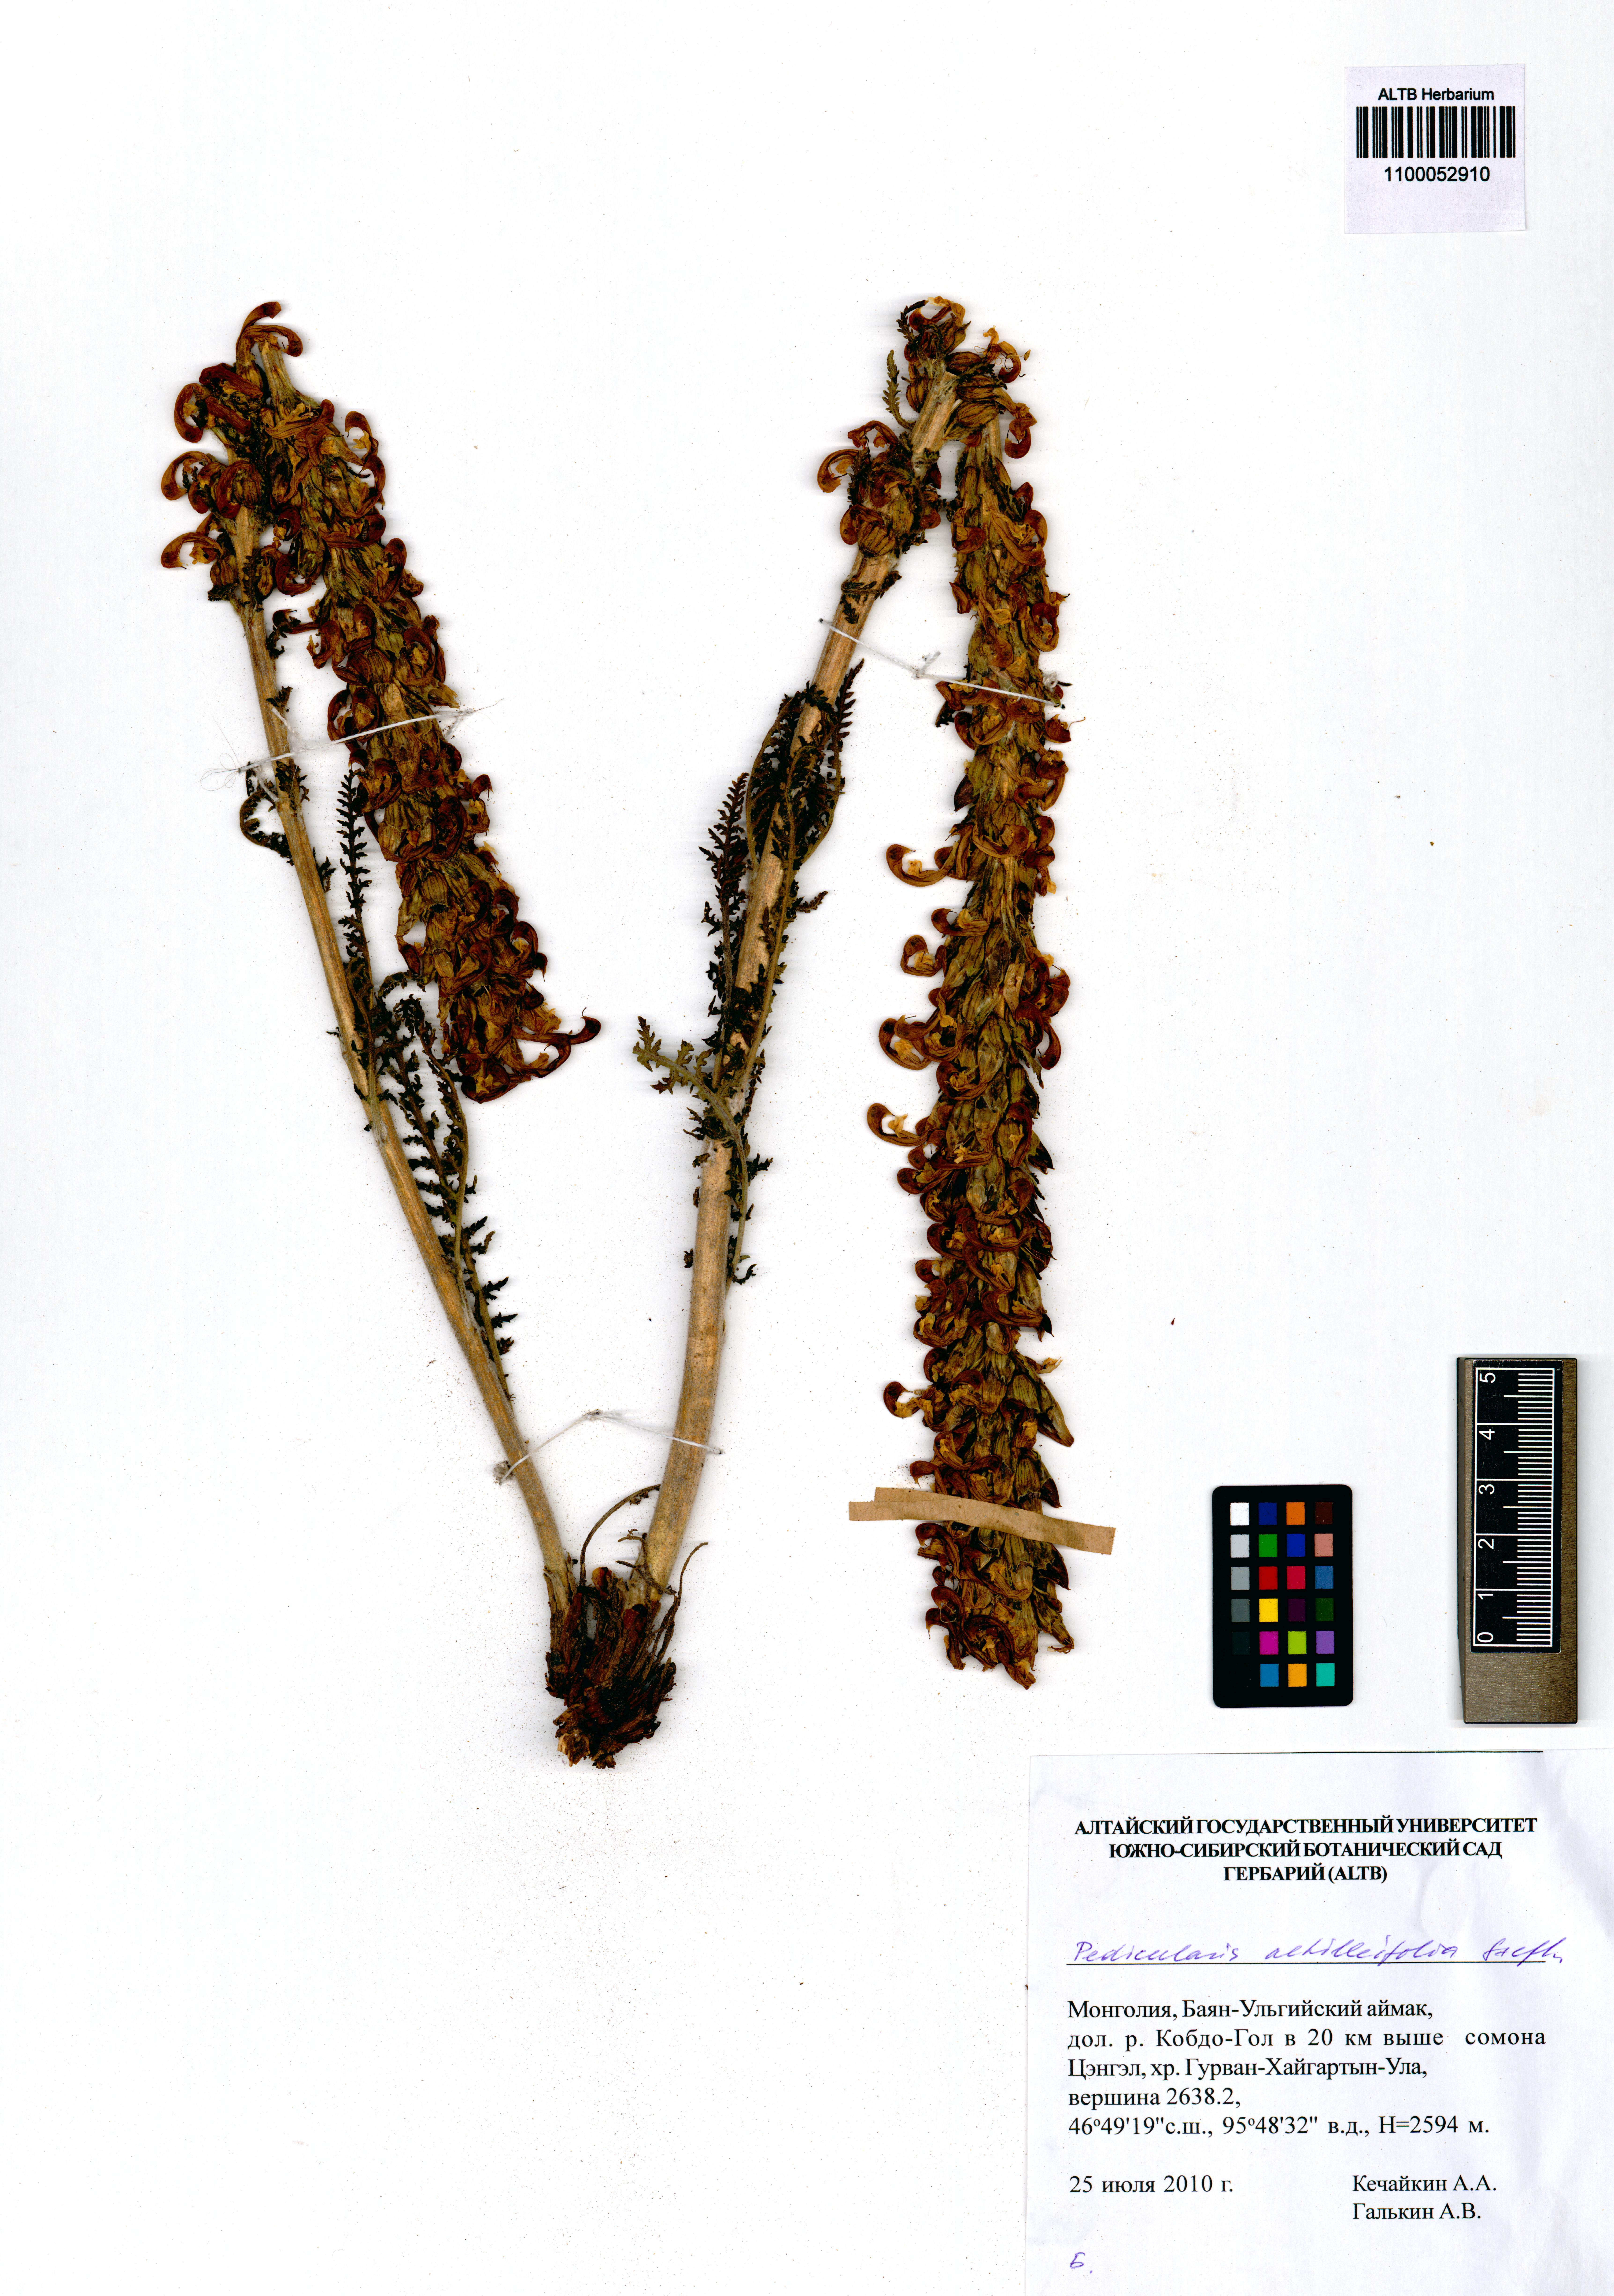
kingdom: Plantae
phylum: Tracheophyta
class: Magnoliopsida
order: Lamiales
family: Orobanchaceae
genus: Pedicularis
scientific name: Pedicularis achilleifolia
